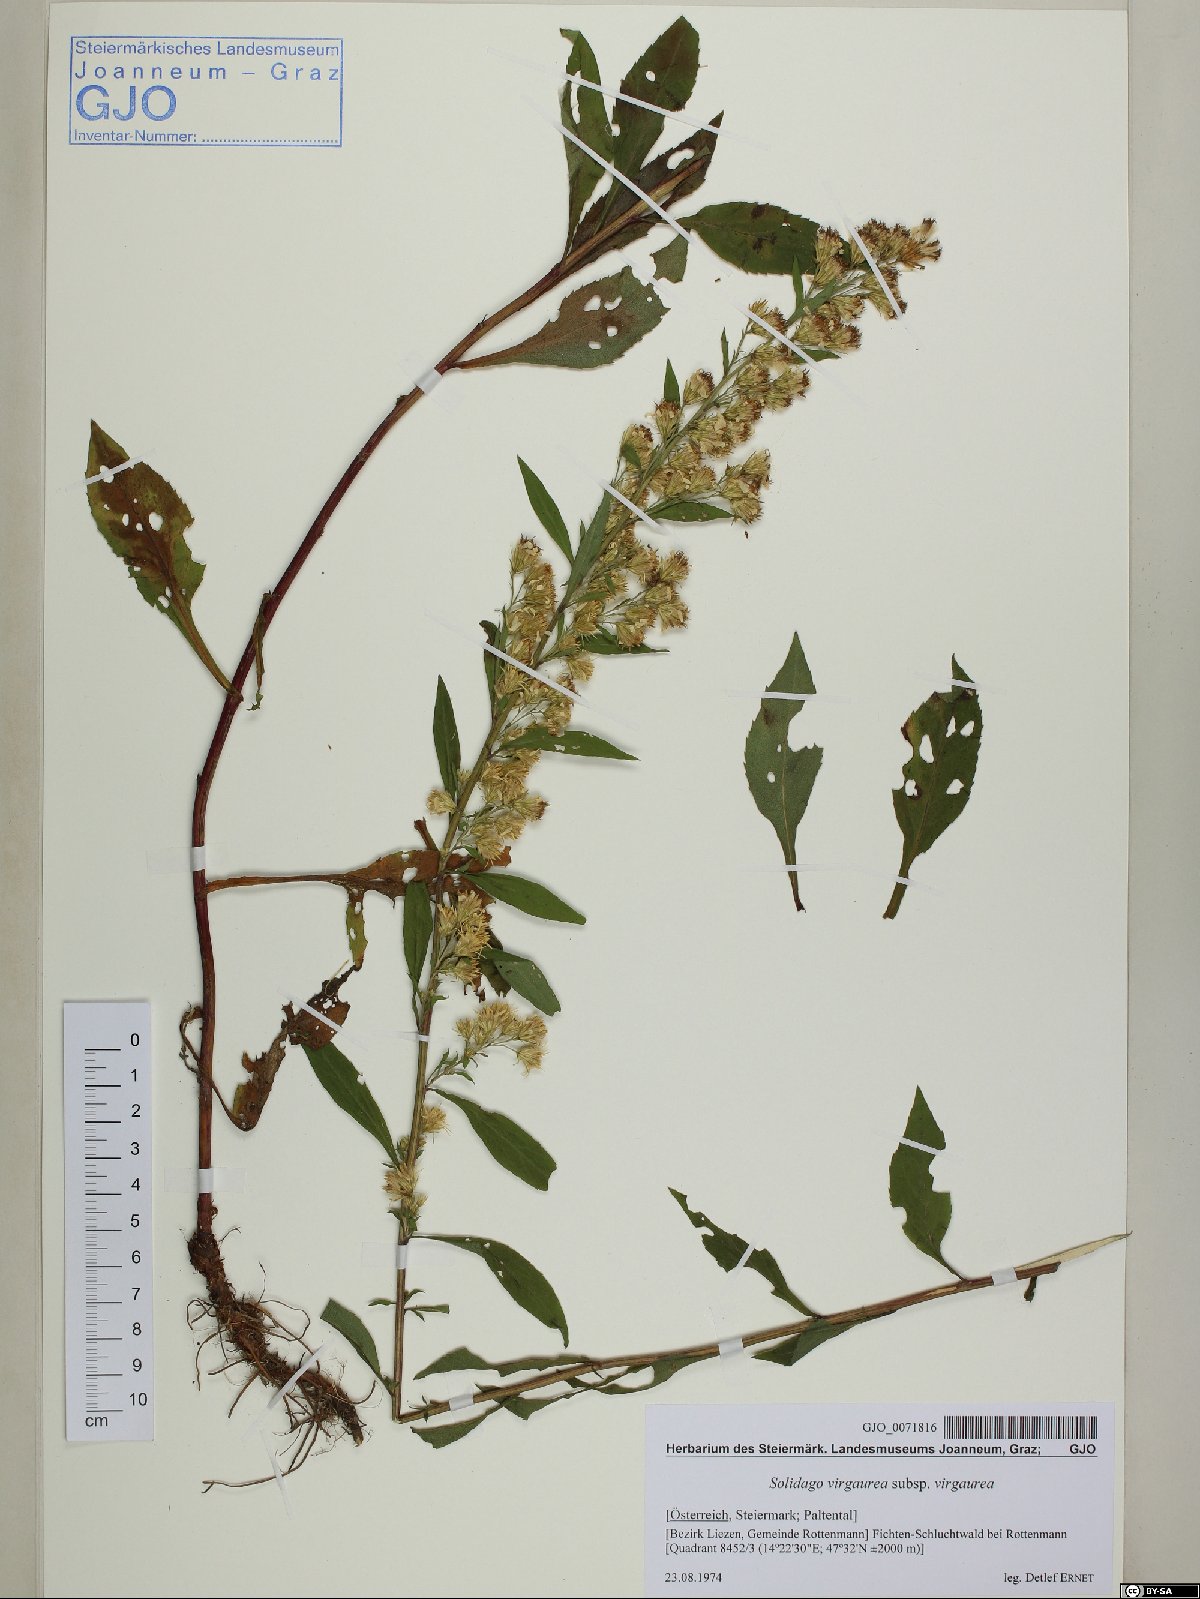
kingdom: Plantae
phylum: Tracheophyta
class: Magnoliopsida
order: Asterales
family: Asteraceae
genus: Solidago
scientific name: Solidago virgaurea
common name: Goldenrod
